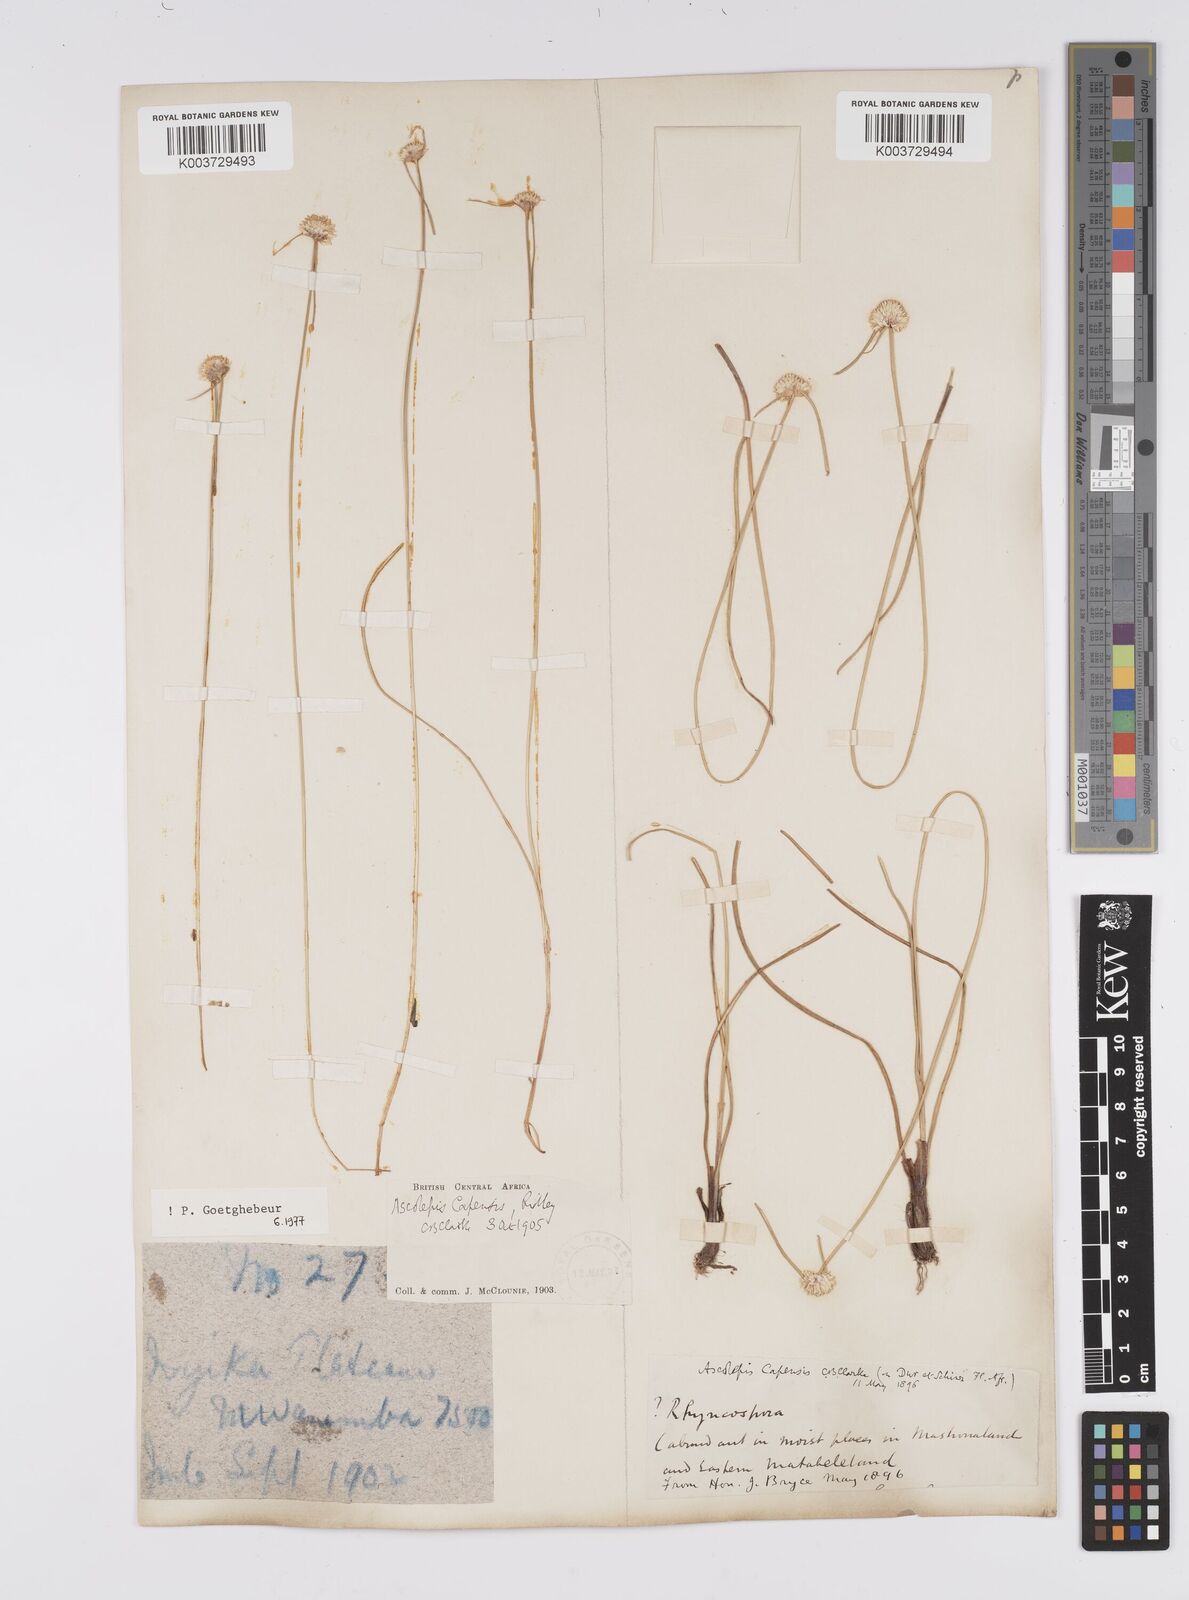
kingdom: Plantae
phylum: Tracheophyta
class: Liliopsida
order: Poales
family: Cyperaceae
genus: Cyperus
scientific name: Cyperus
